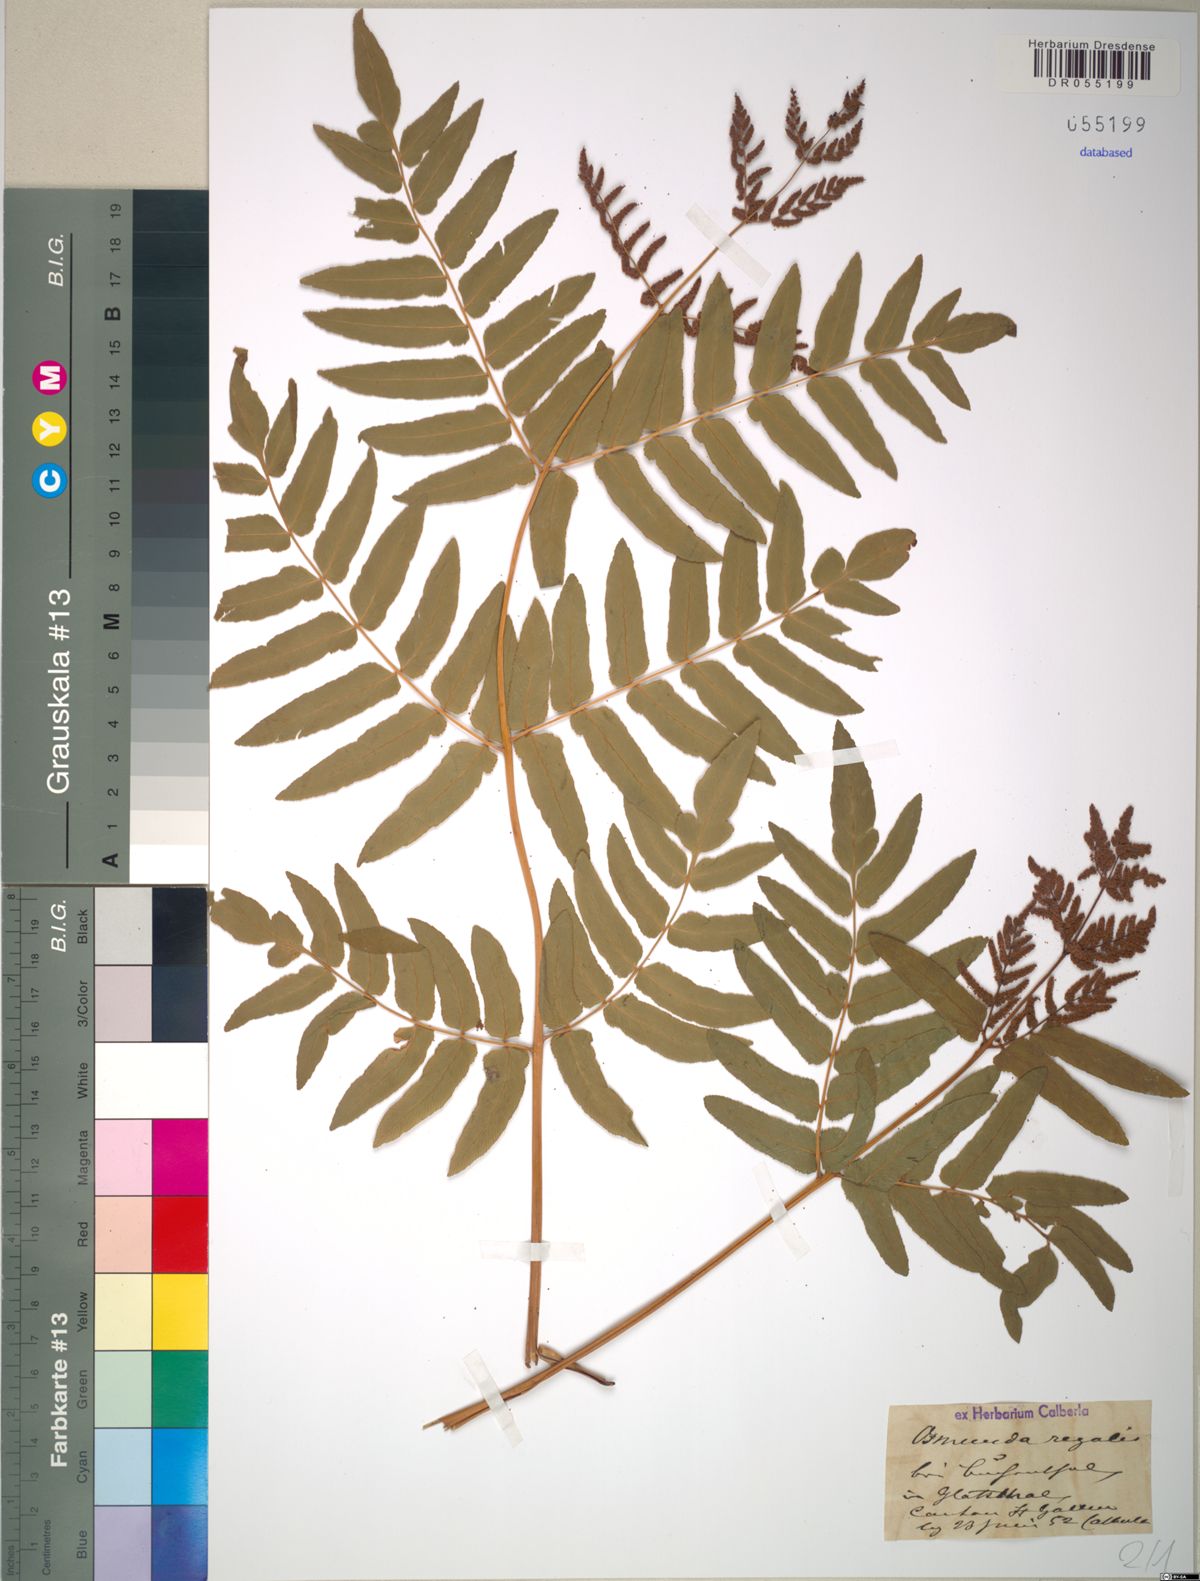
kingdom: Plantae
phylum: Tracheophyta
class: Polypodiopsida
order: Osmundales
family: Osmundaceae
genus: Osmunda
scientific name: Osmunda regalis
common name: Royal fern
